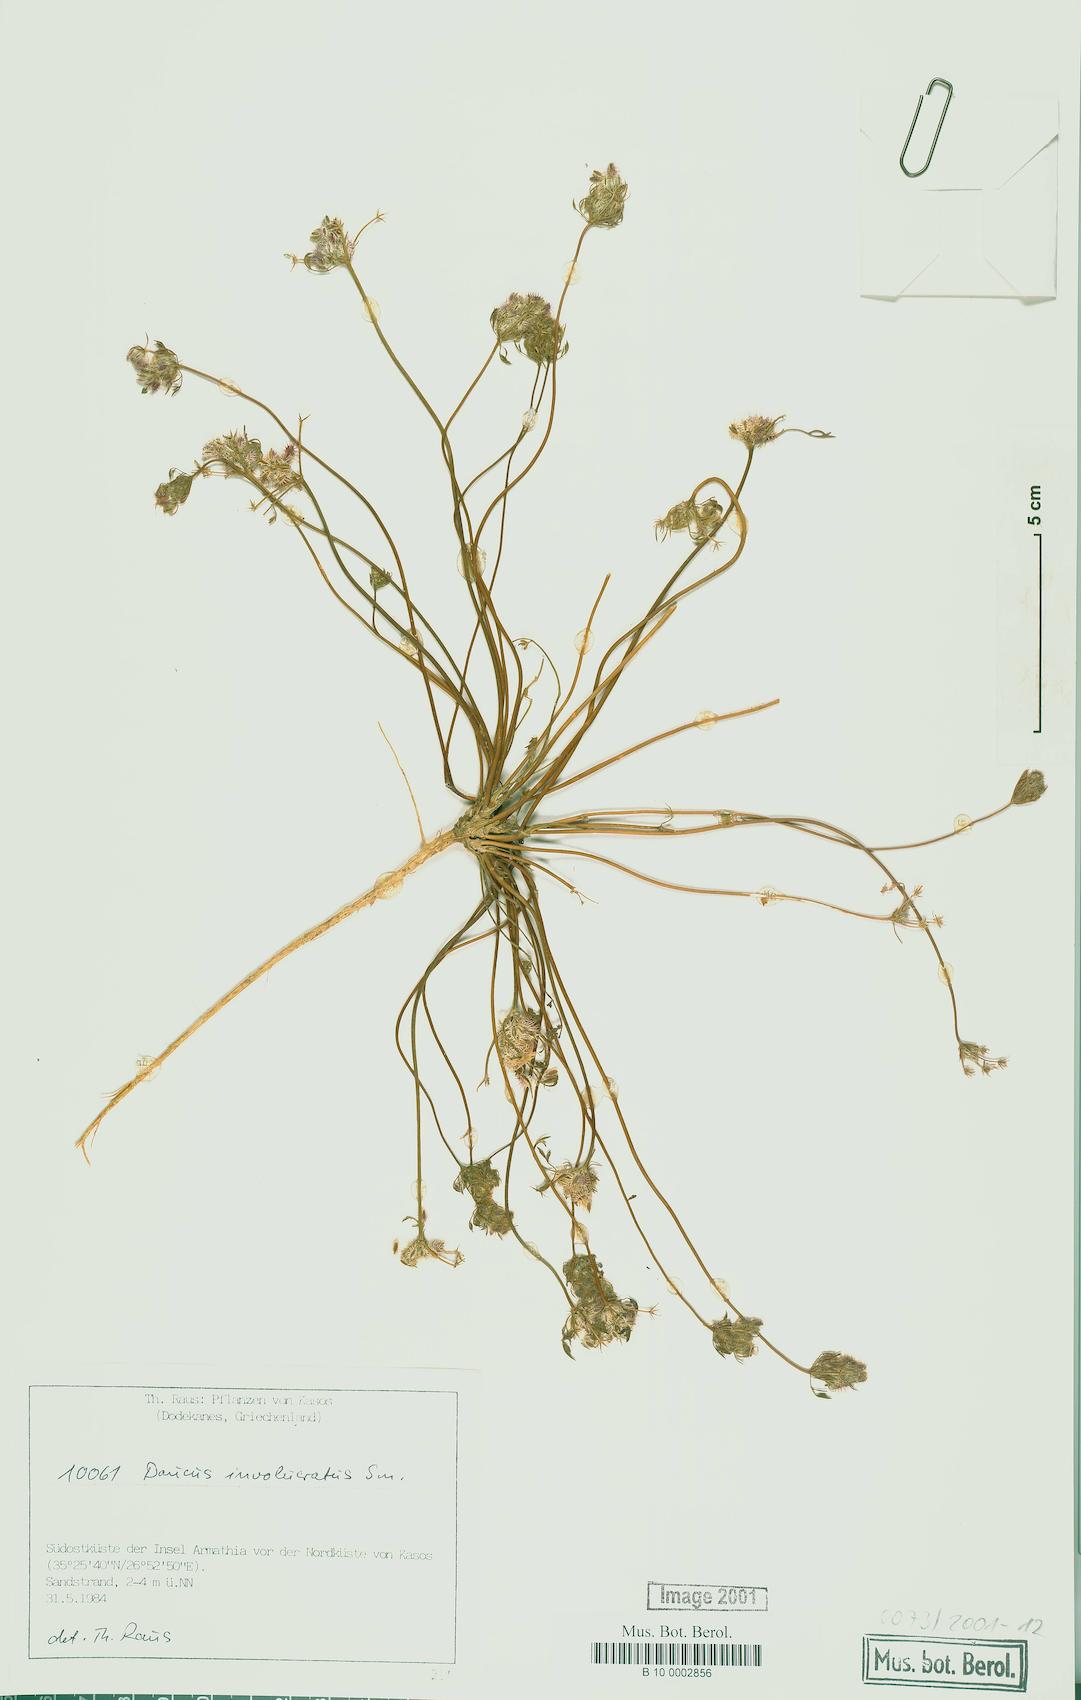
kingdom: Plantae
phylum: Tracheophyta
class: Magnoliopsida
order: Apiales
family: Apiaceae
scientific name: Apiaceae
